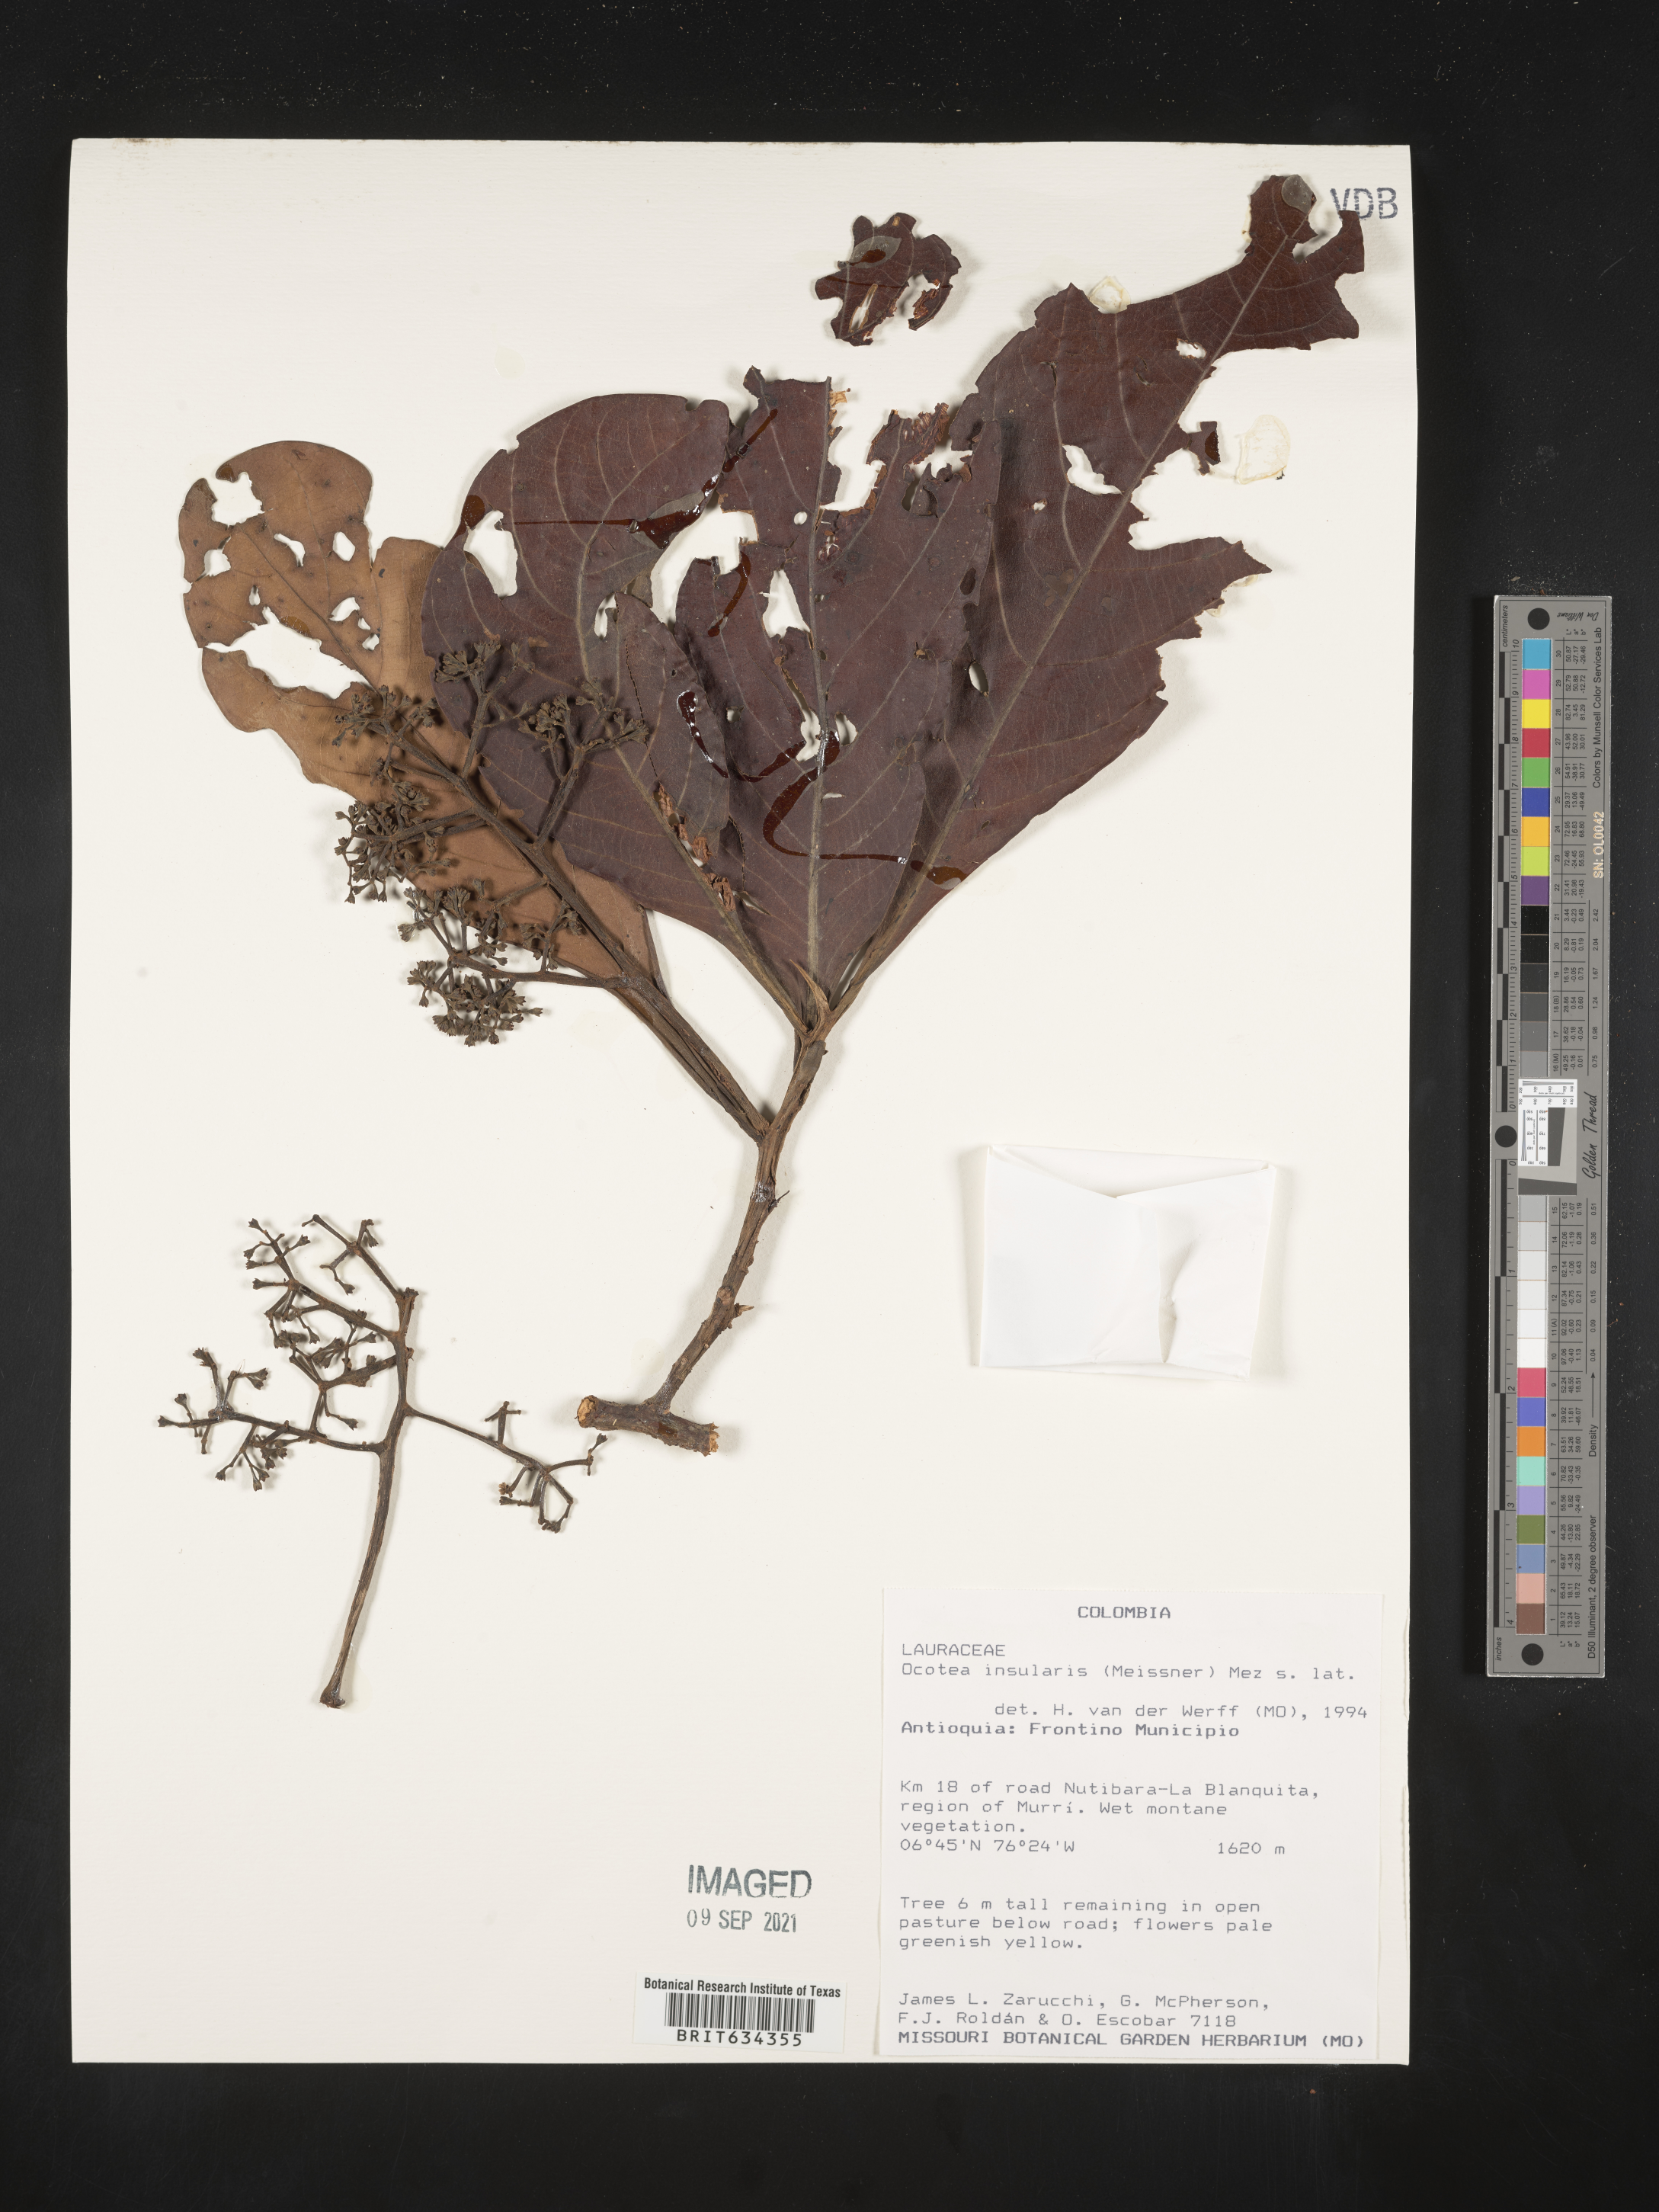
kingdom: Plantae
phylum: Tracheophyta
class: Magnoliopsida
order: Laurales
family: Lauraceae
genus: Ocotea
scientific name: Ocotea
